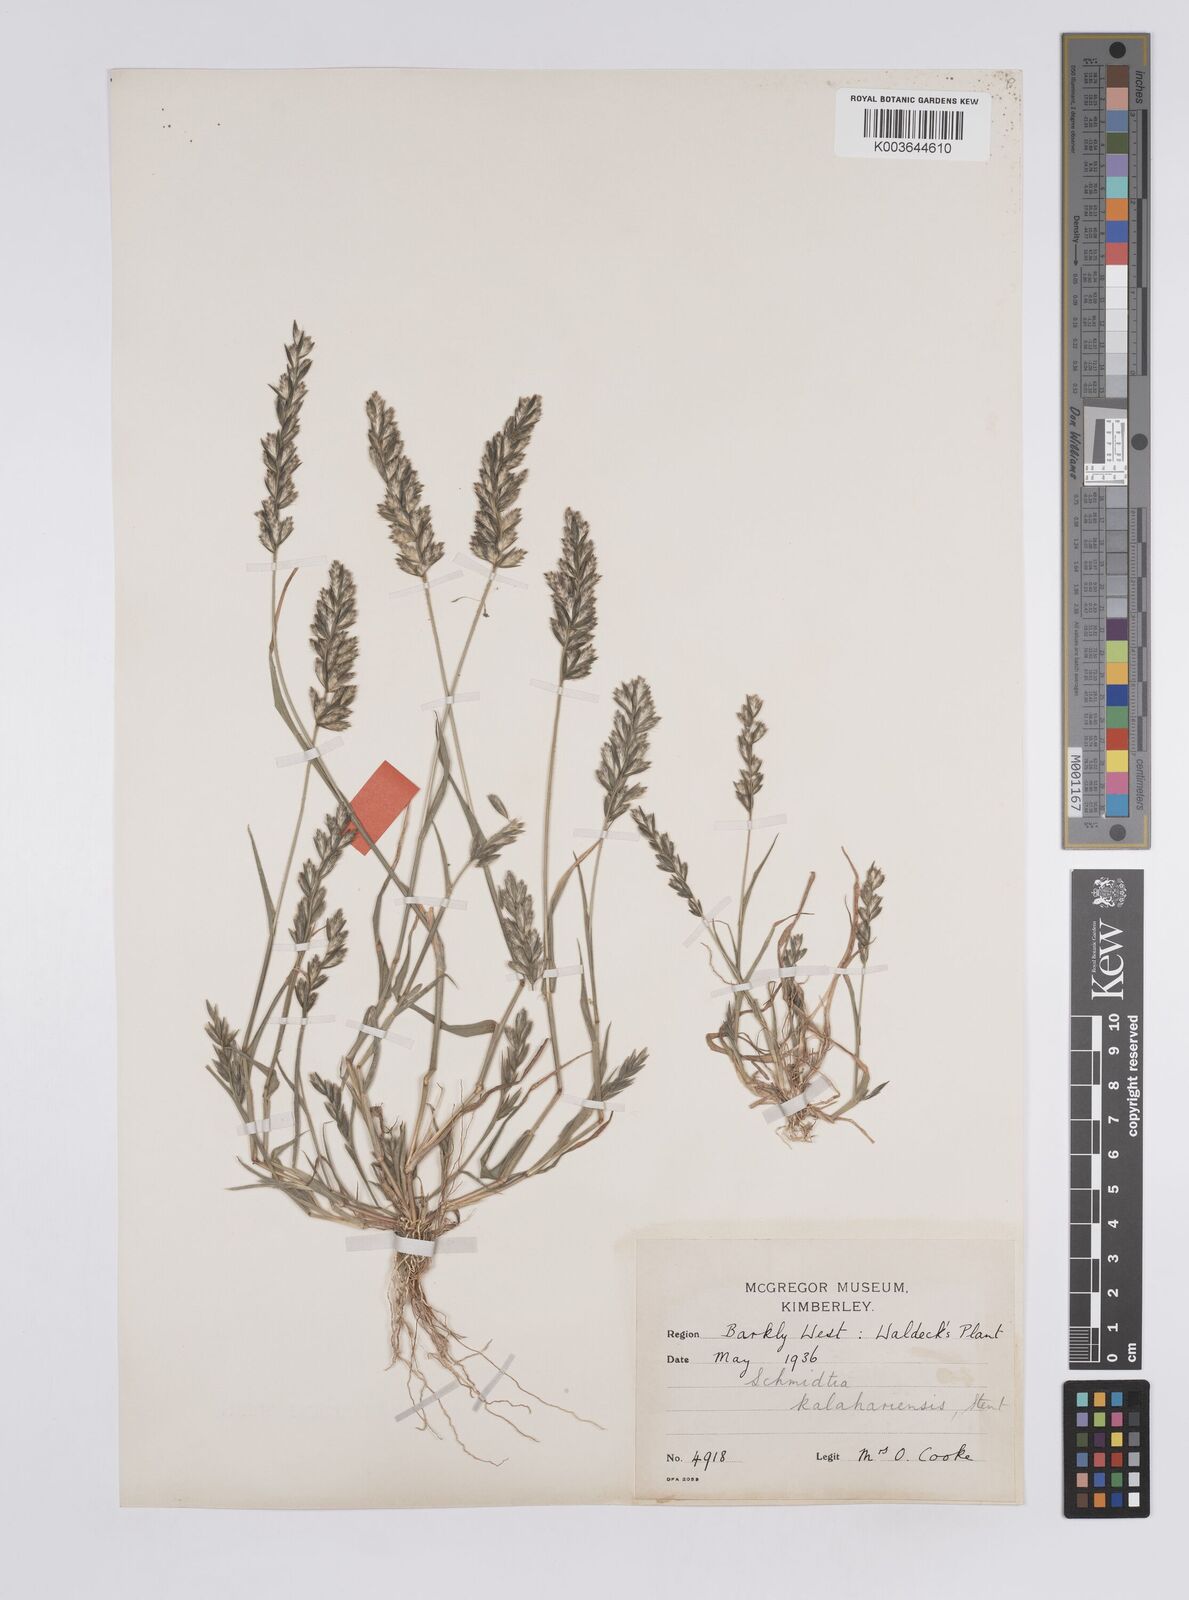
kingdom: Plantae
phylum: Tracheophyta
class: Liliopsida
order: Poales
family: Poaceae
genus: Schmidtia
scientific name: Schmidtia kalahariensis
